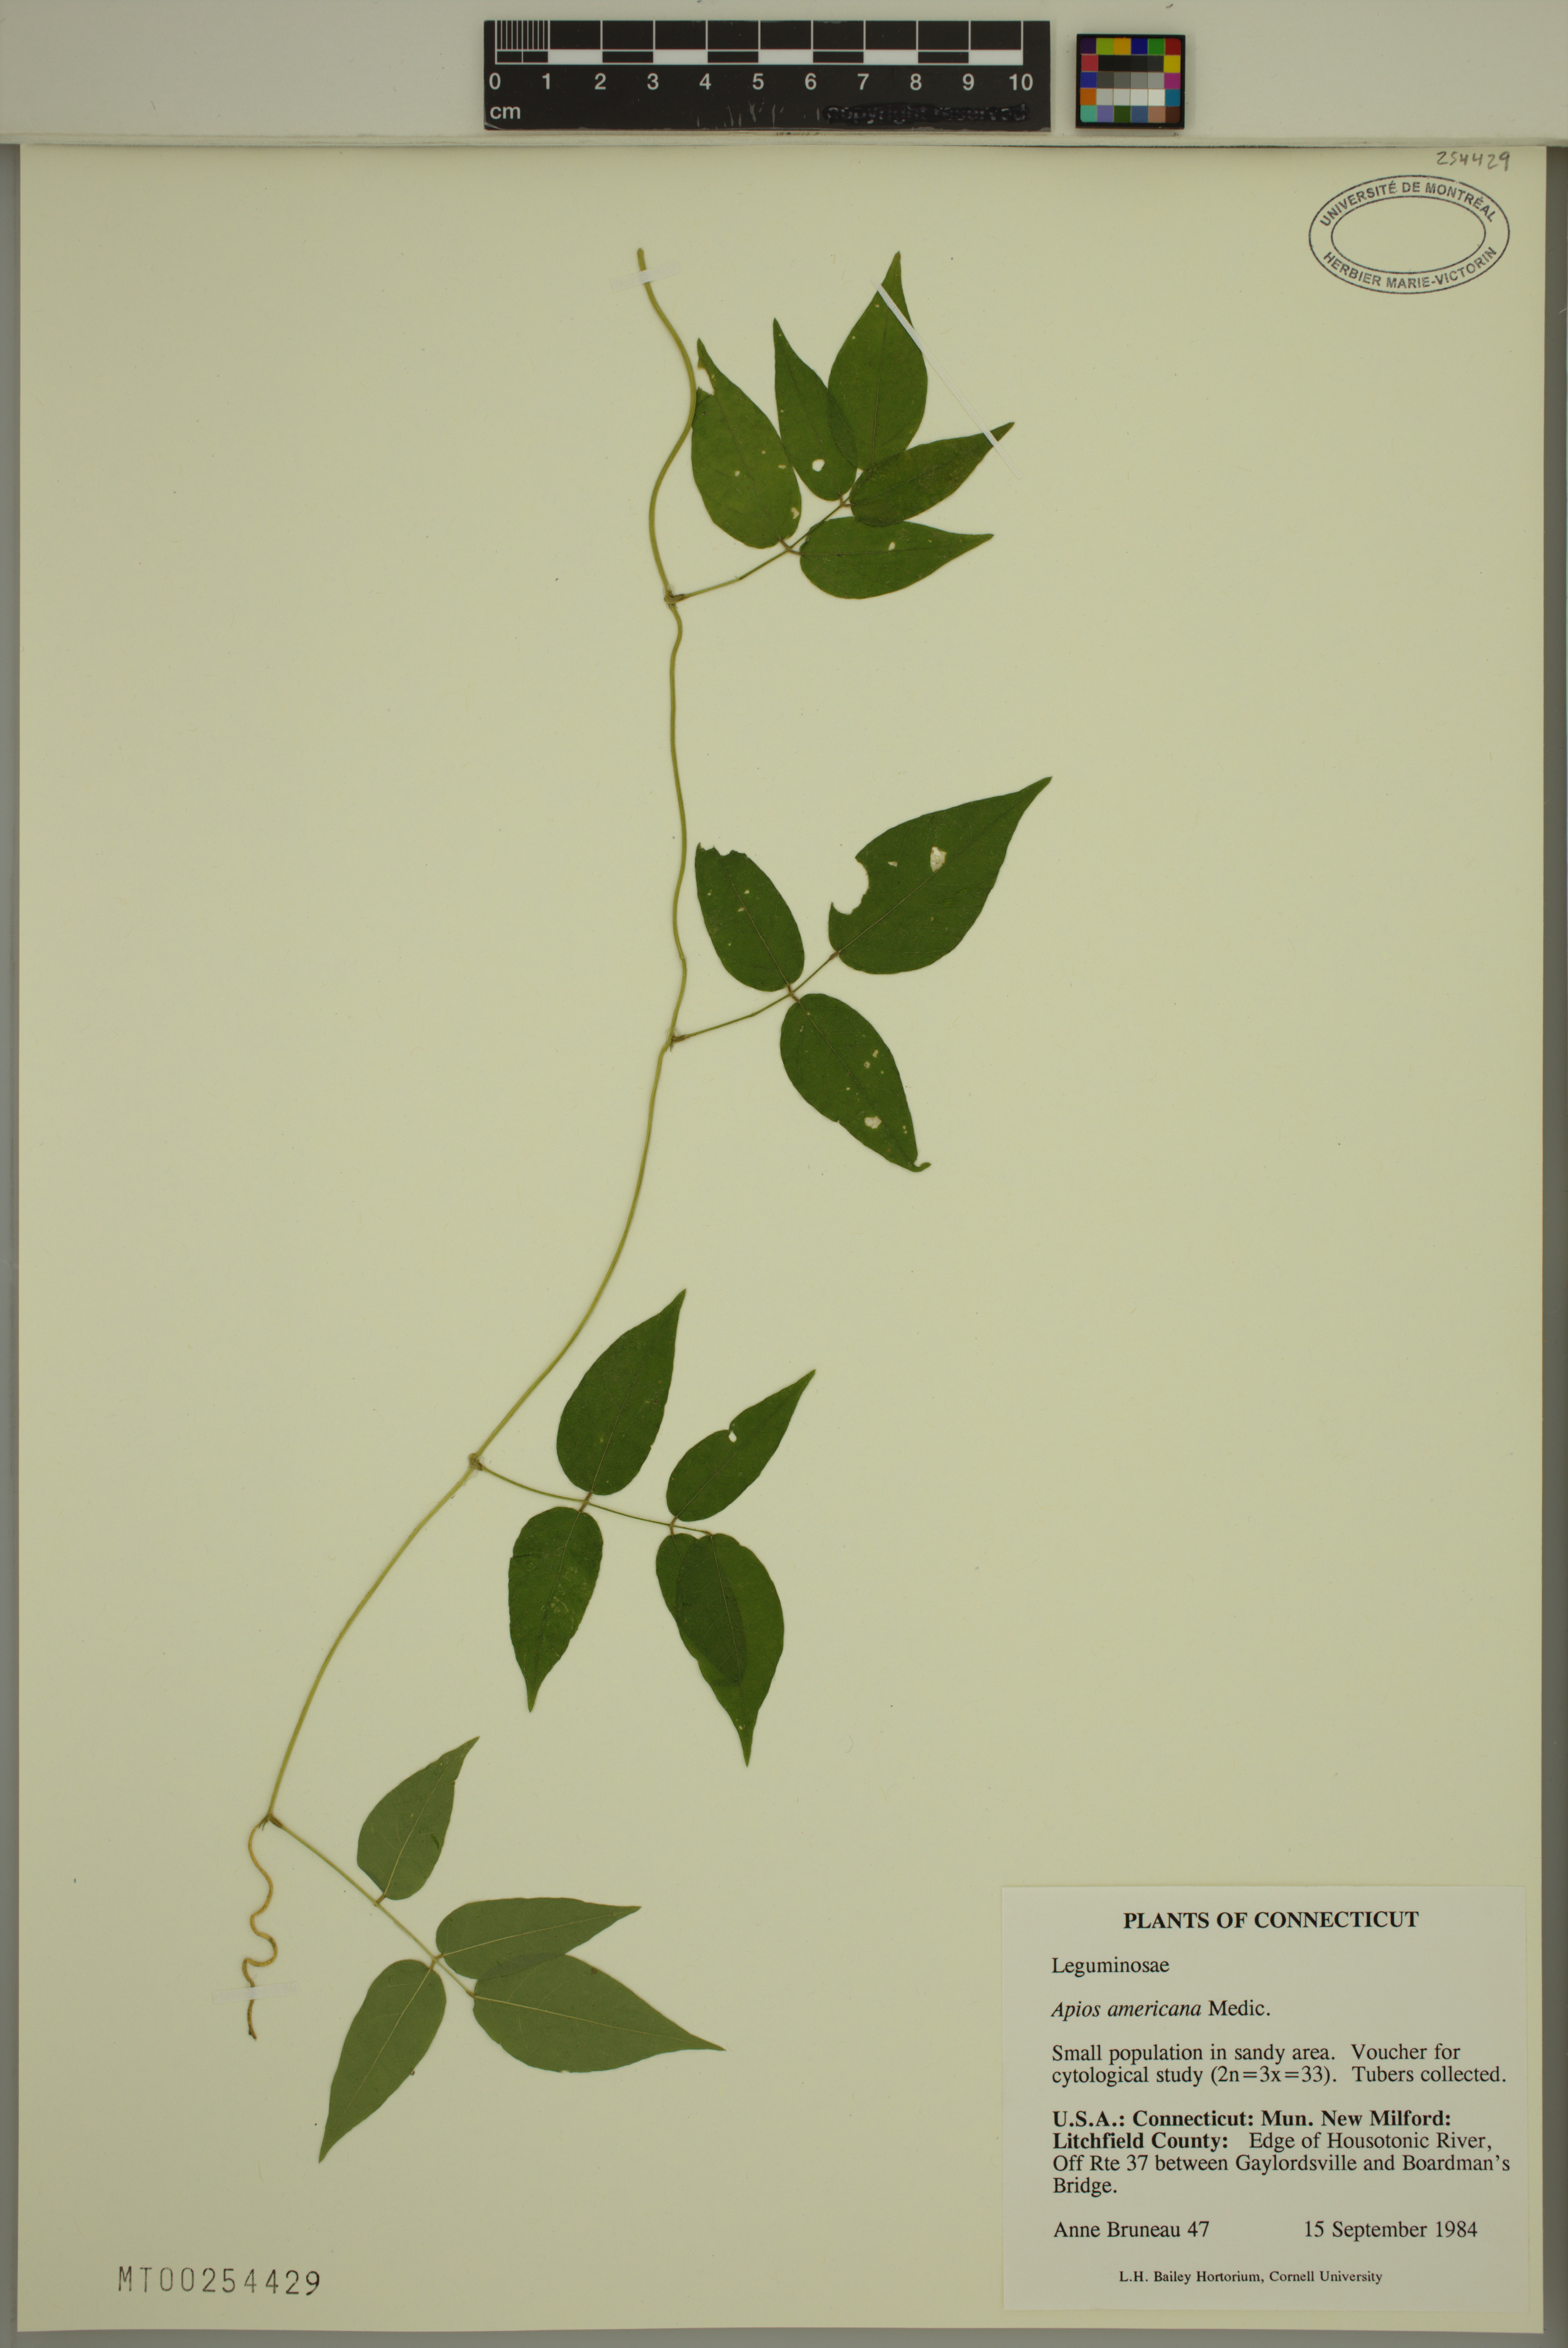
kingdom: Plantae
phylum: Tracheophyta
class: Magnoliopsida
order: Fabales
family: Fabaceae
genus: Apios
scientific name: Apios americana
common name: American potato-bean
